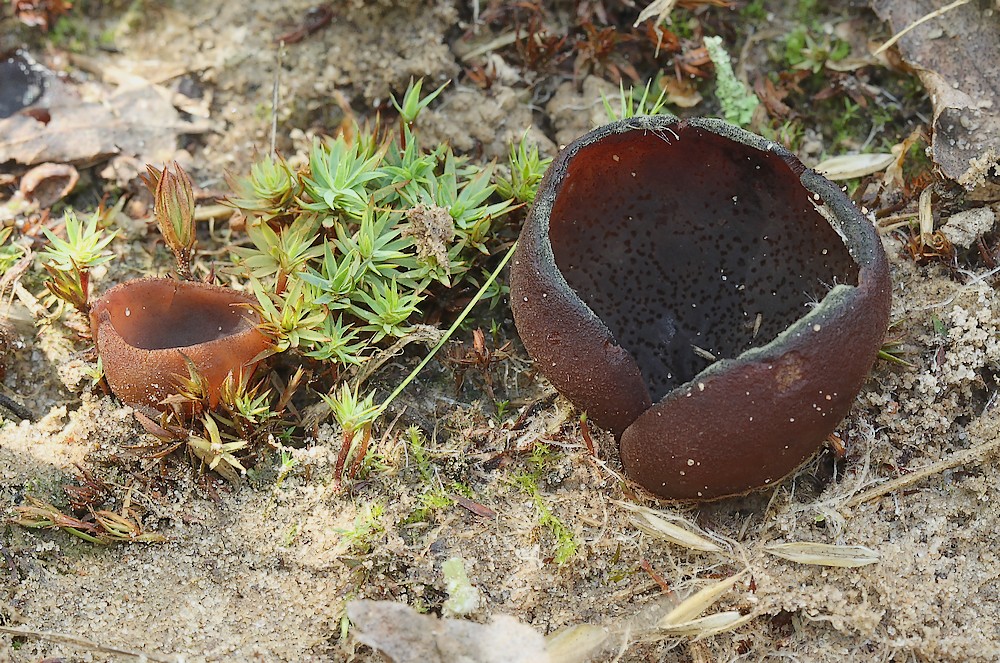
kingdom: Fungi
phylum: Ascomycota
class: Pezizomycetes
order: Pezizales
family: Pezizaceae
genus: Legaliana
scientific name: Legaliana badia
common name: leverbrun bægersvamp
